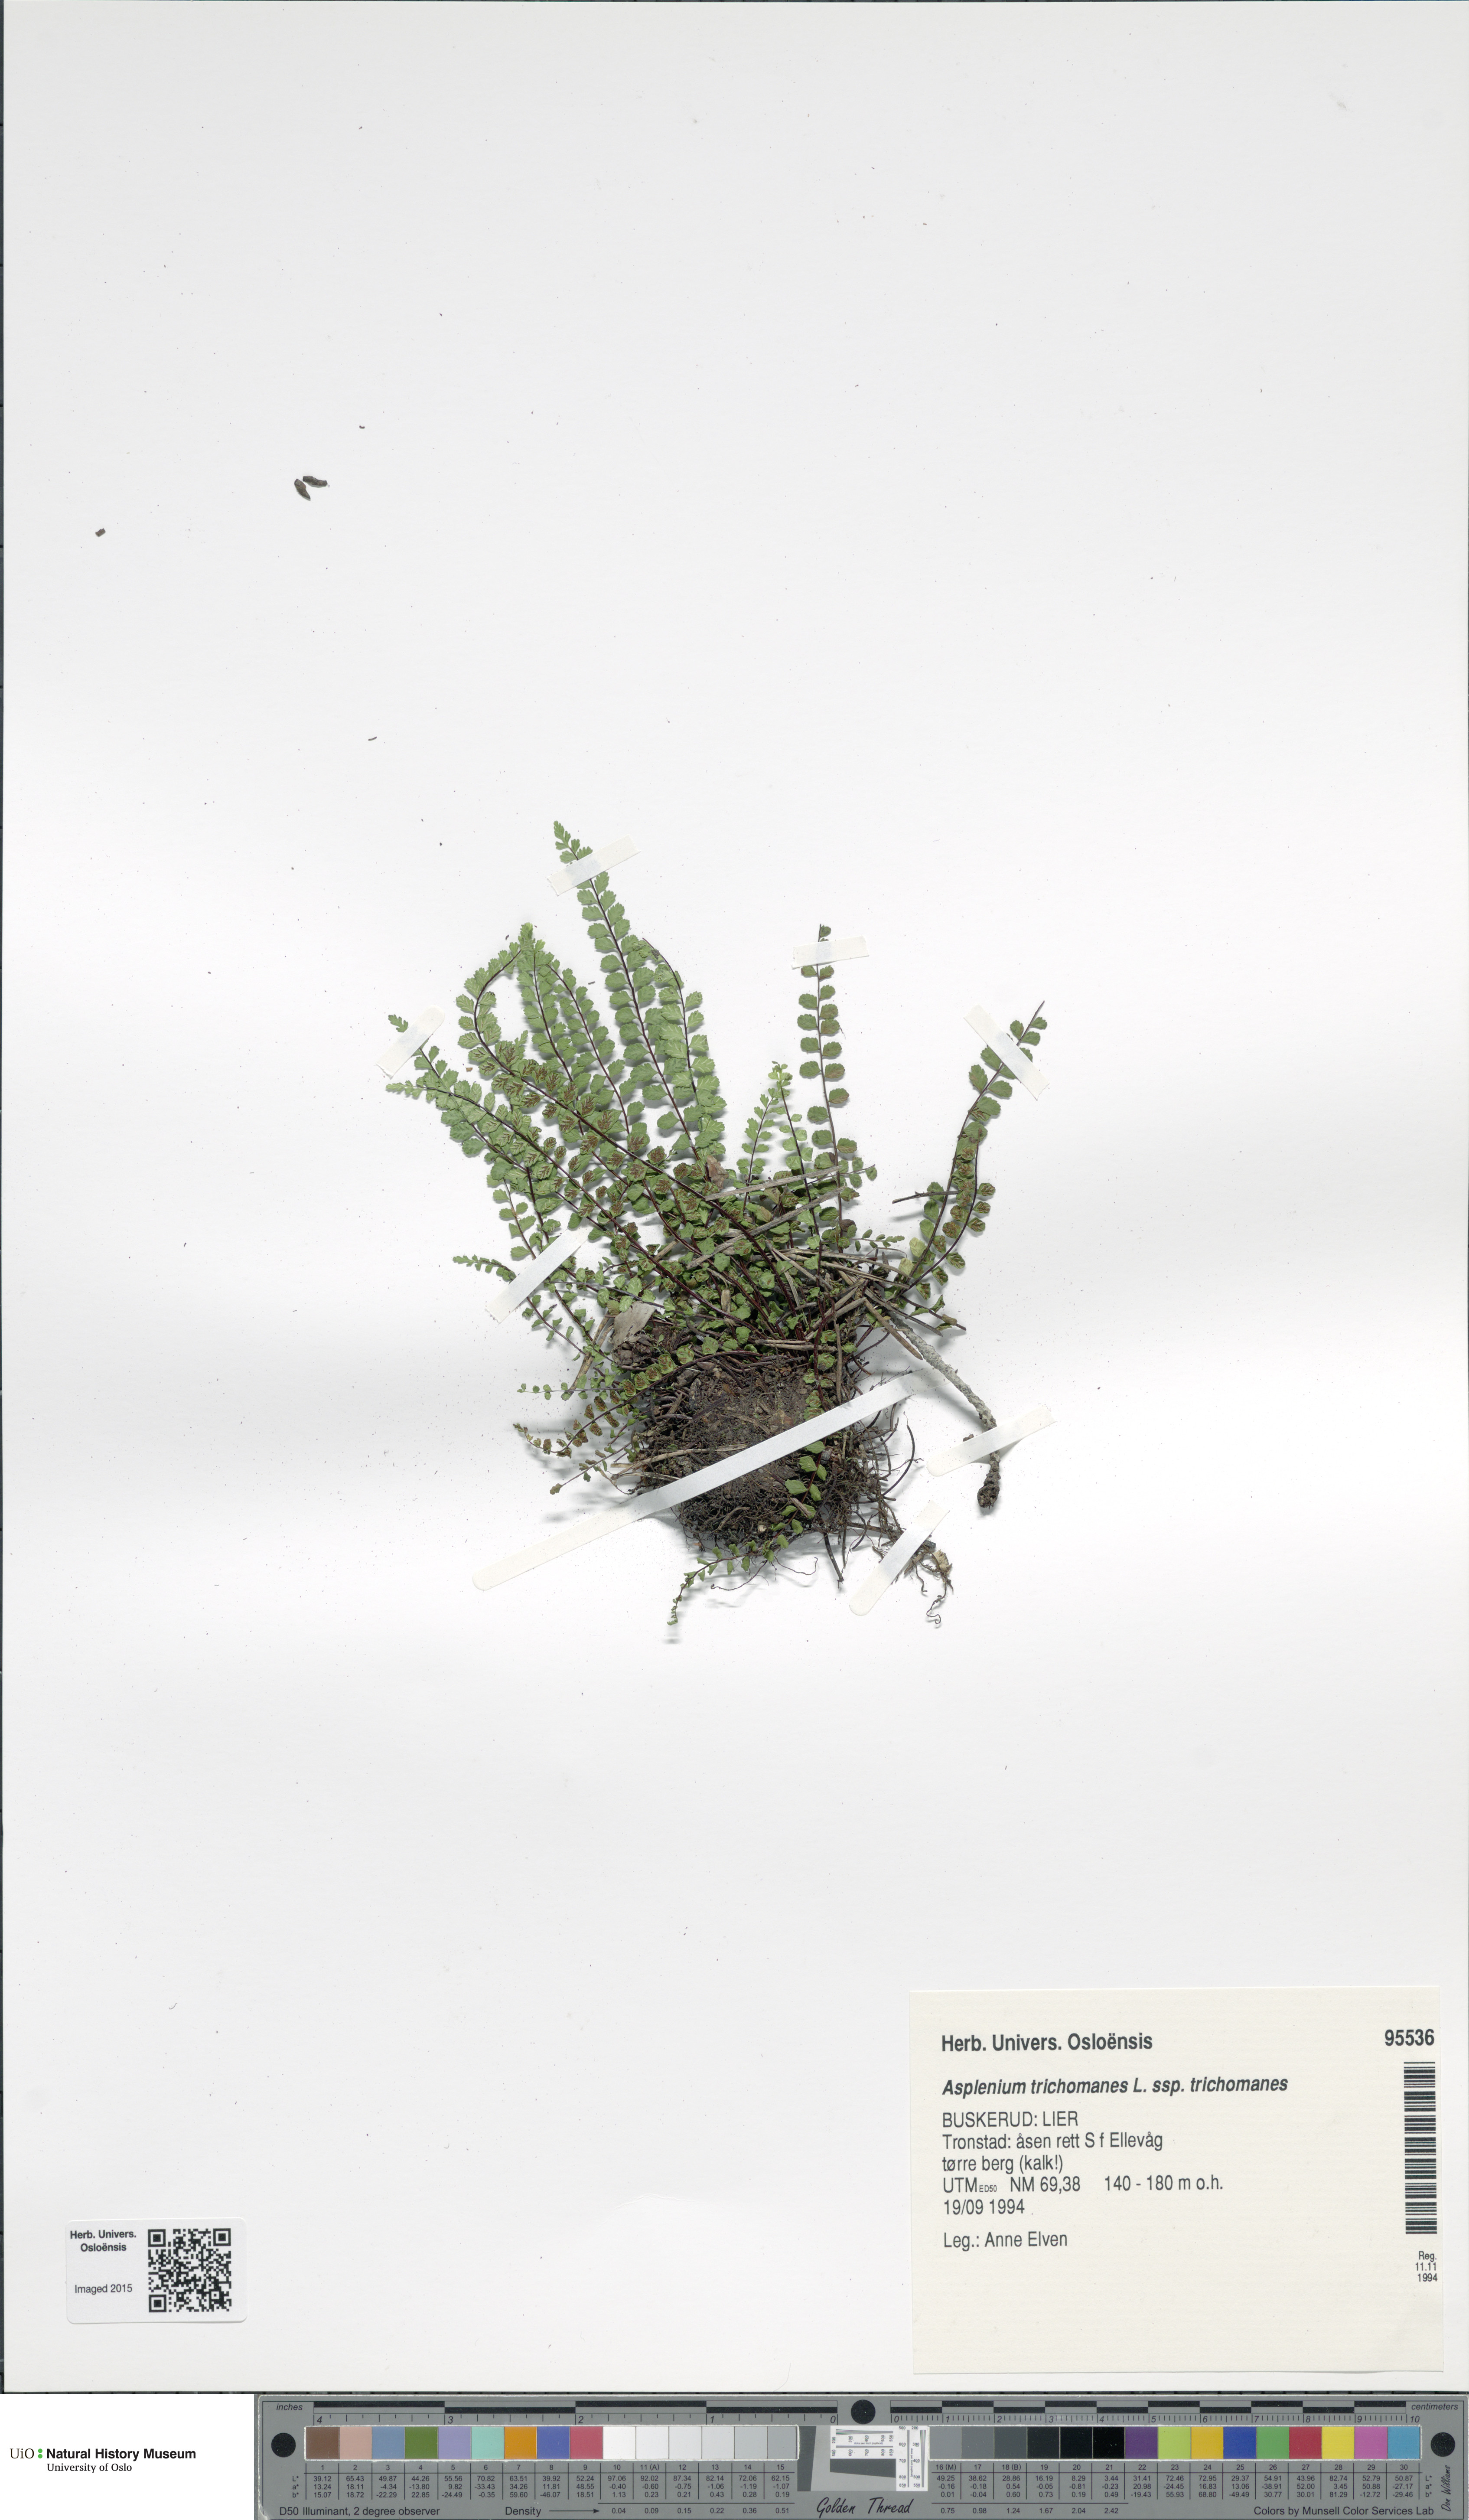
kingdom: Plantae
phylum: Tracheophyta
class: Polypodiopsida
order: Polypodiales
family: Aspleniaceae
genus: Asplenium
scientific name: Asplenium trichomanes
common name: Maidenhair spleenwort
